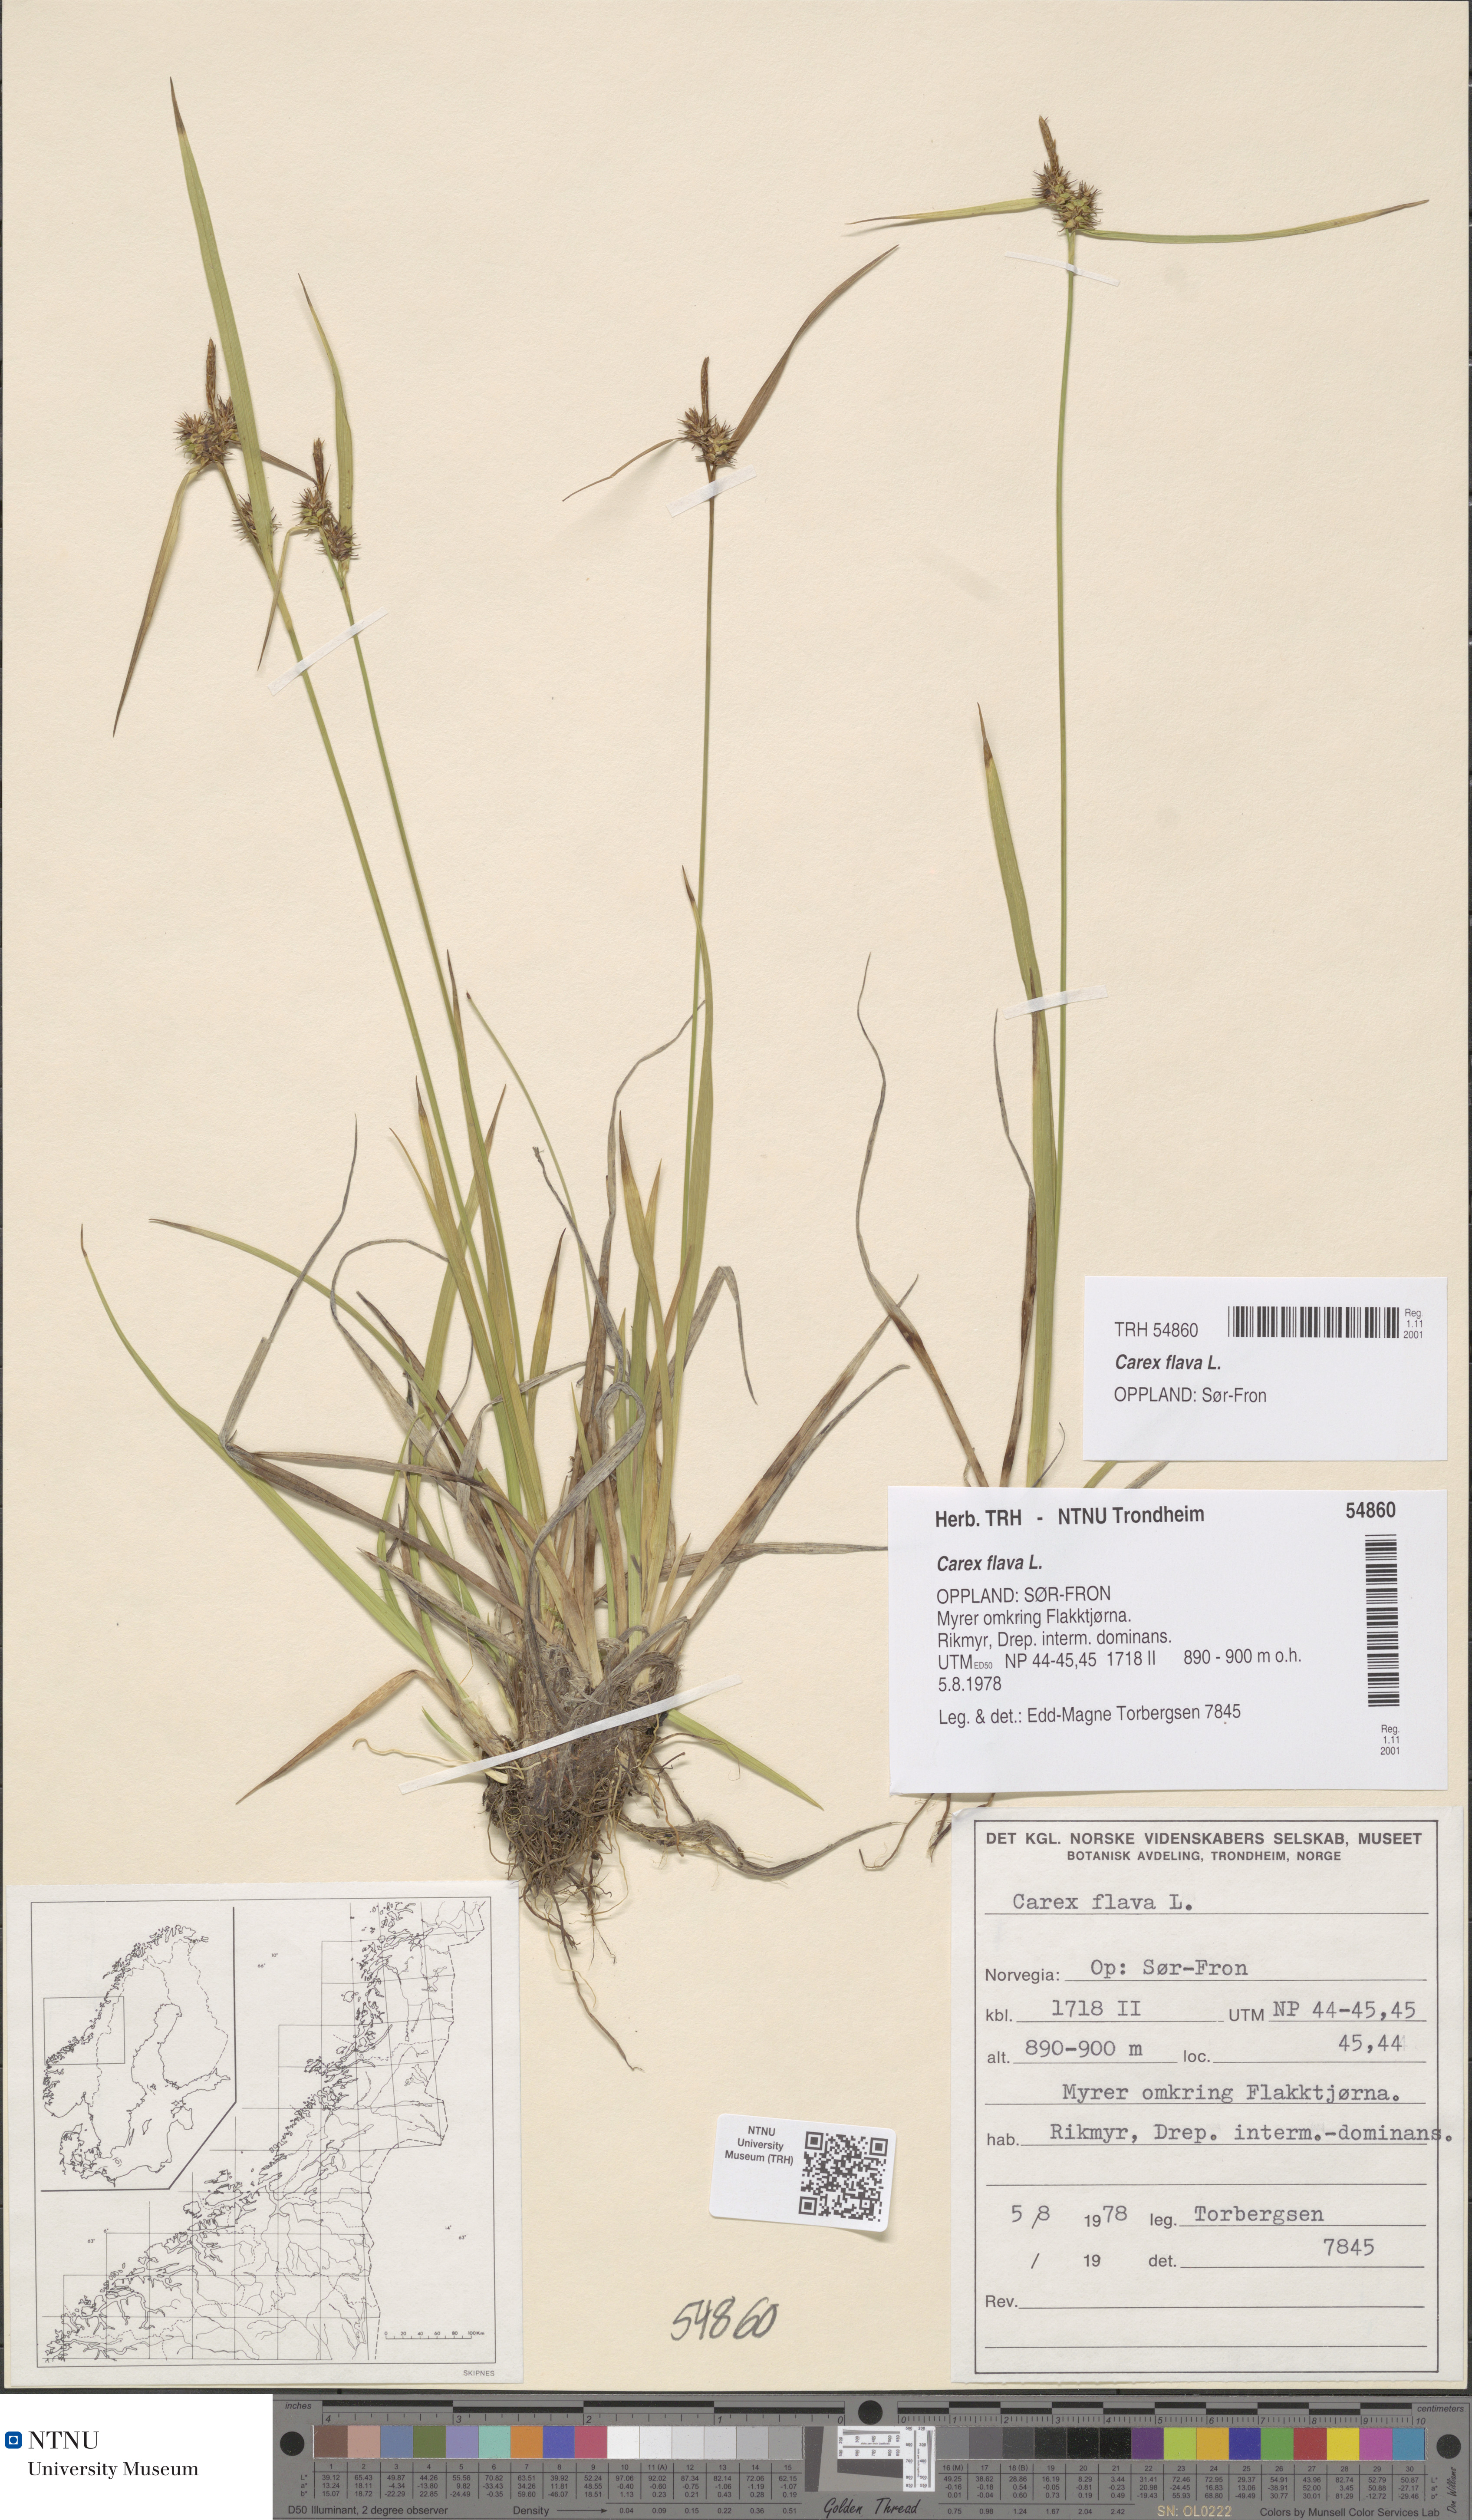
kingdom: Plantae
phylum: Tracheophyta
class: Liliopsida
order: Poales
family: Cyperaceae
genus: Carex
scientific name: Carex flava
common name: Large yellow-sedge
